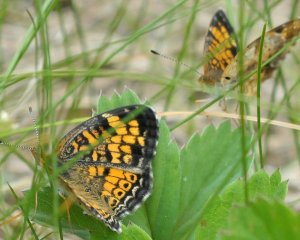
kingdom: Animalia
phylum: Arthropoda
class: Insecta
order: Lepidoptera
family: Nymphalidae
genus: Phyciodes
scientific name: Phyciodes
